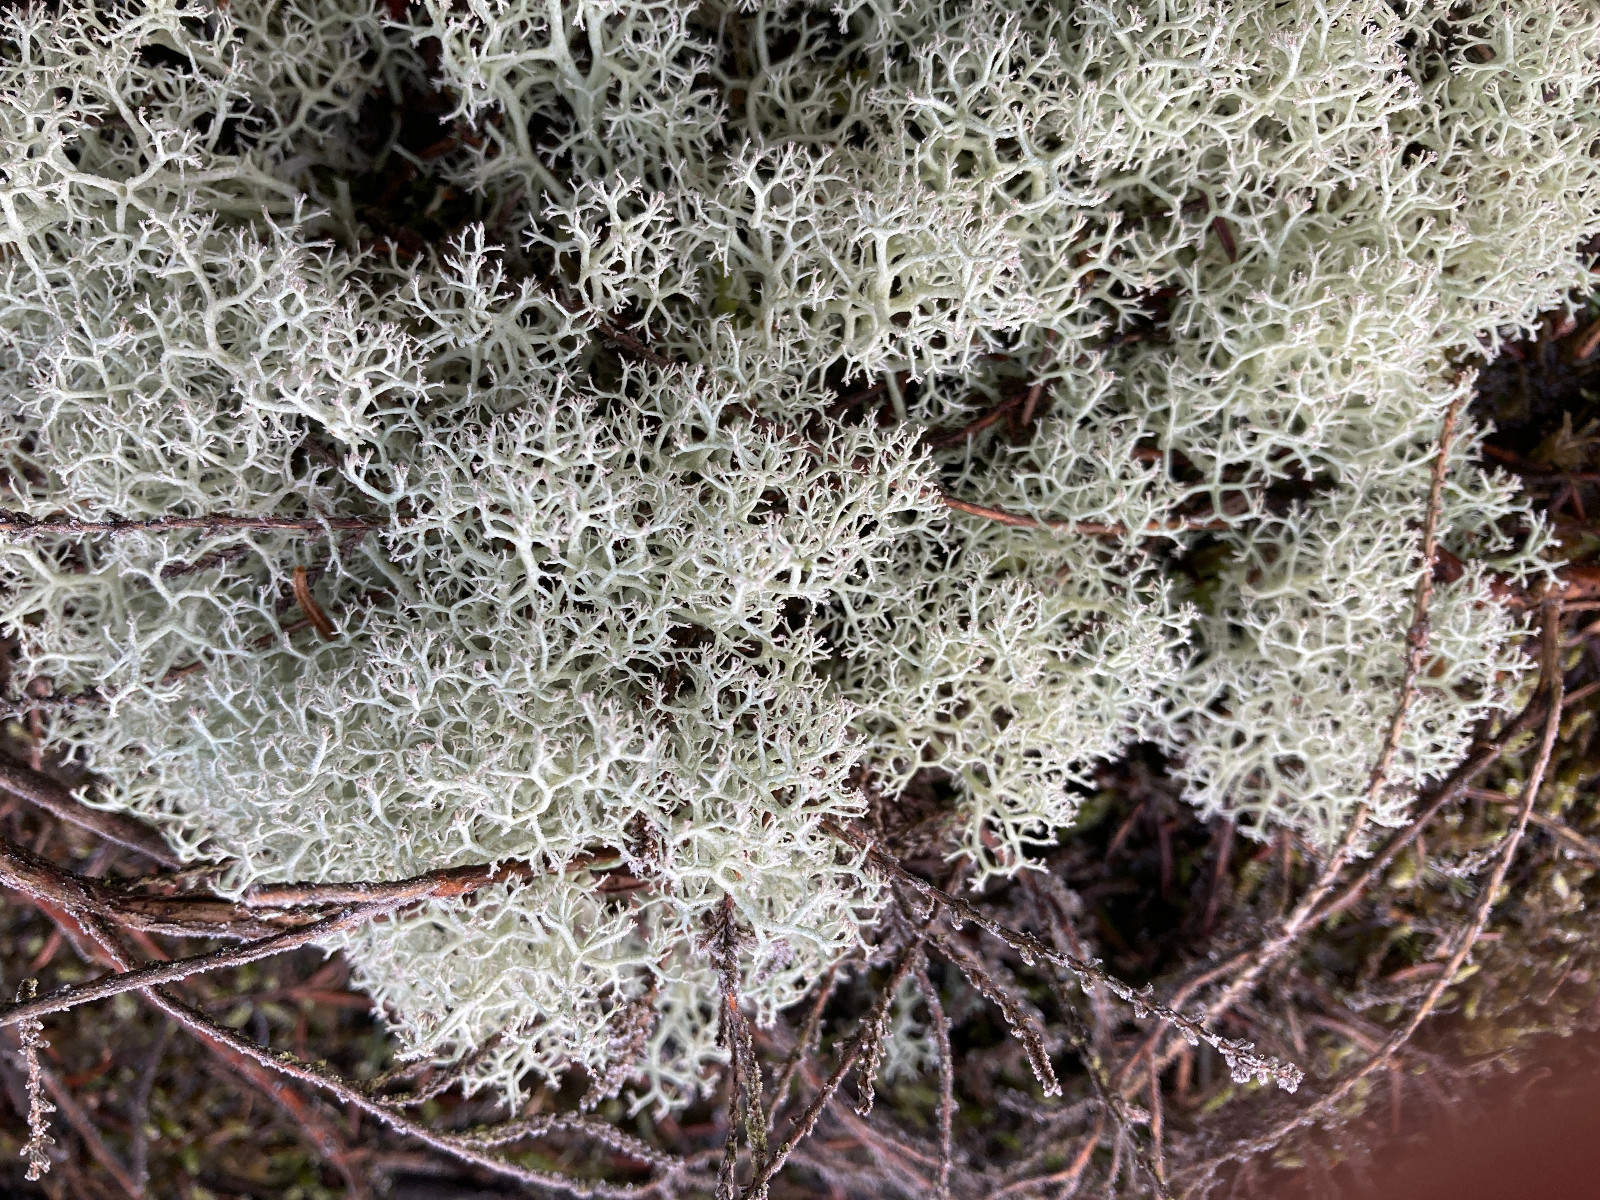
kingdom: Fungi
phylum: Ascomycota
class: Lecanoromycetes
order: Lecanorales
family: Cladoniaceae
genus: Cladonia
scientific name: Cladonia portentosa
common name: hede-rensdyrlav
